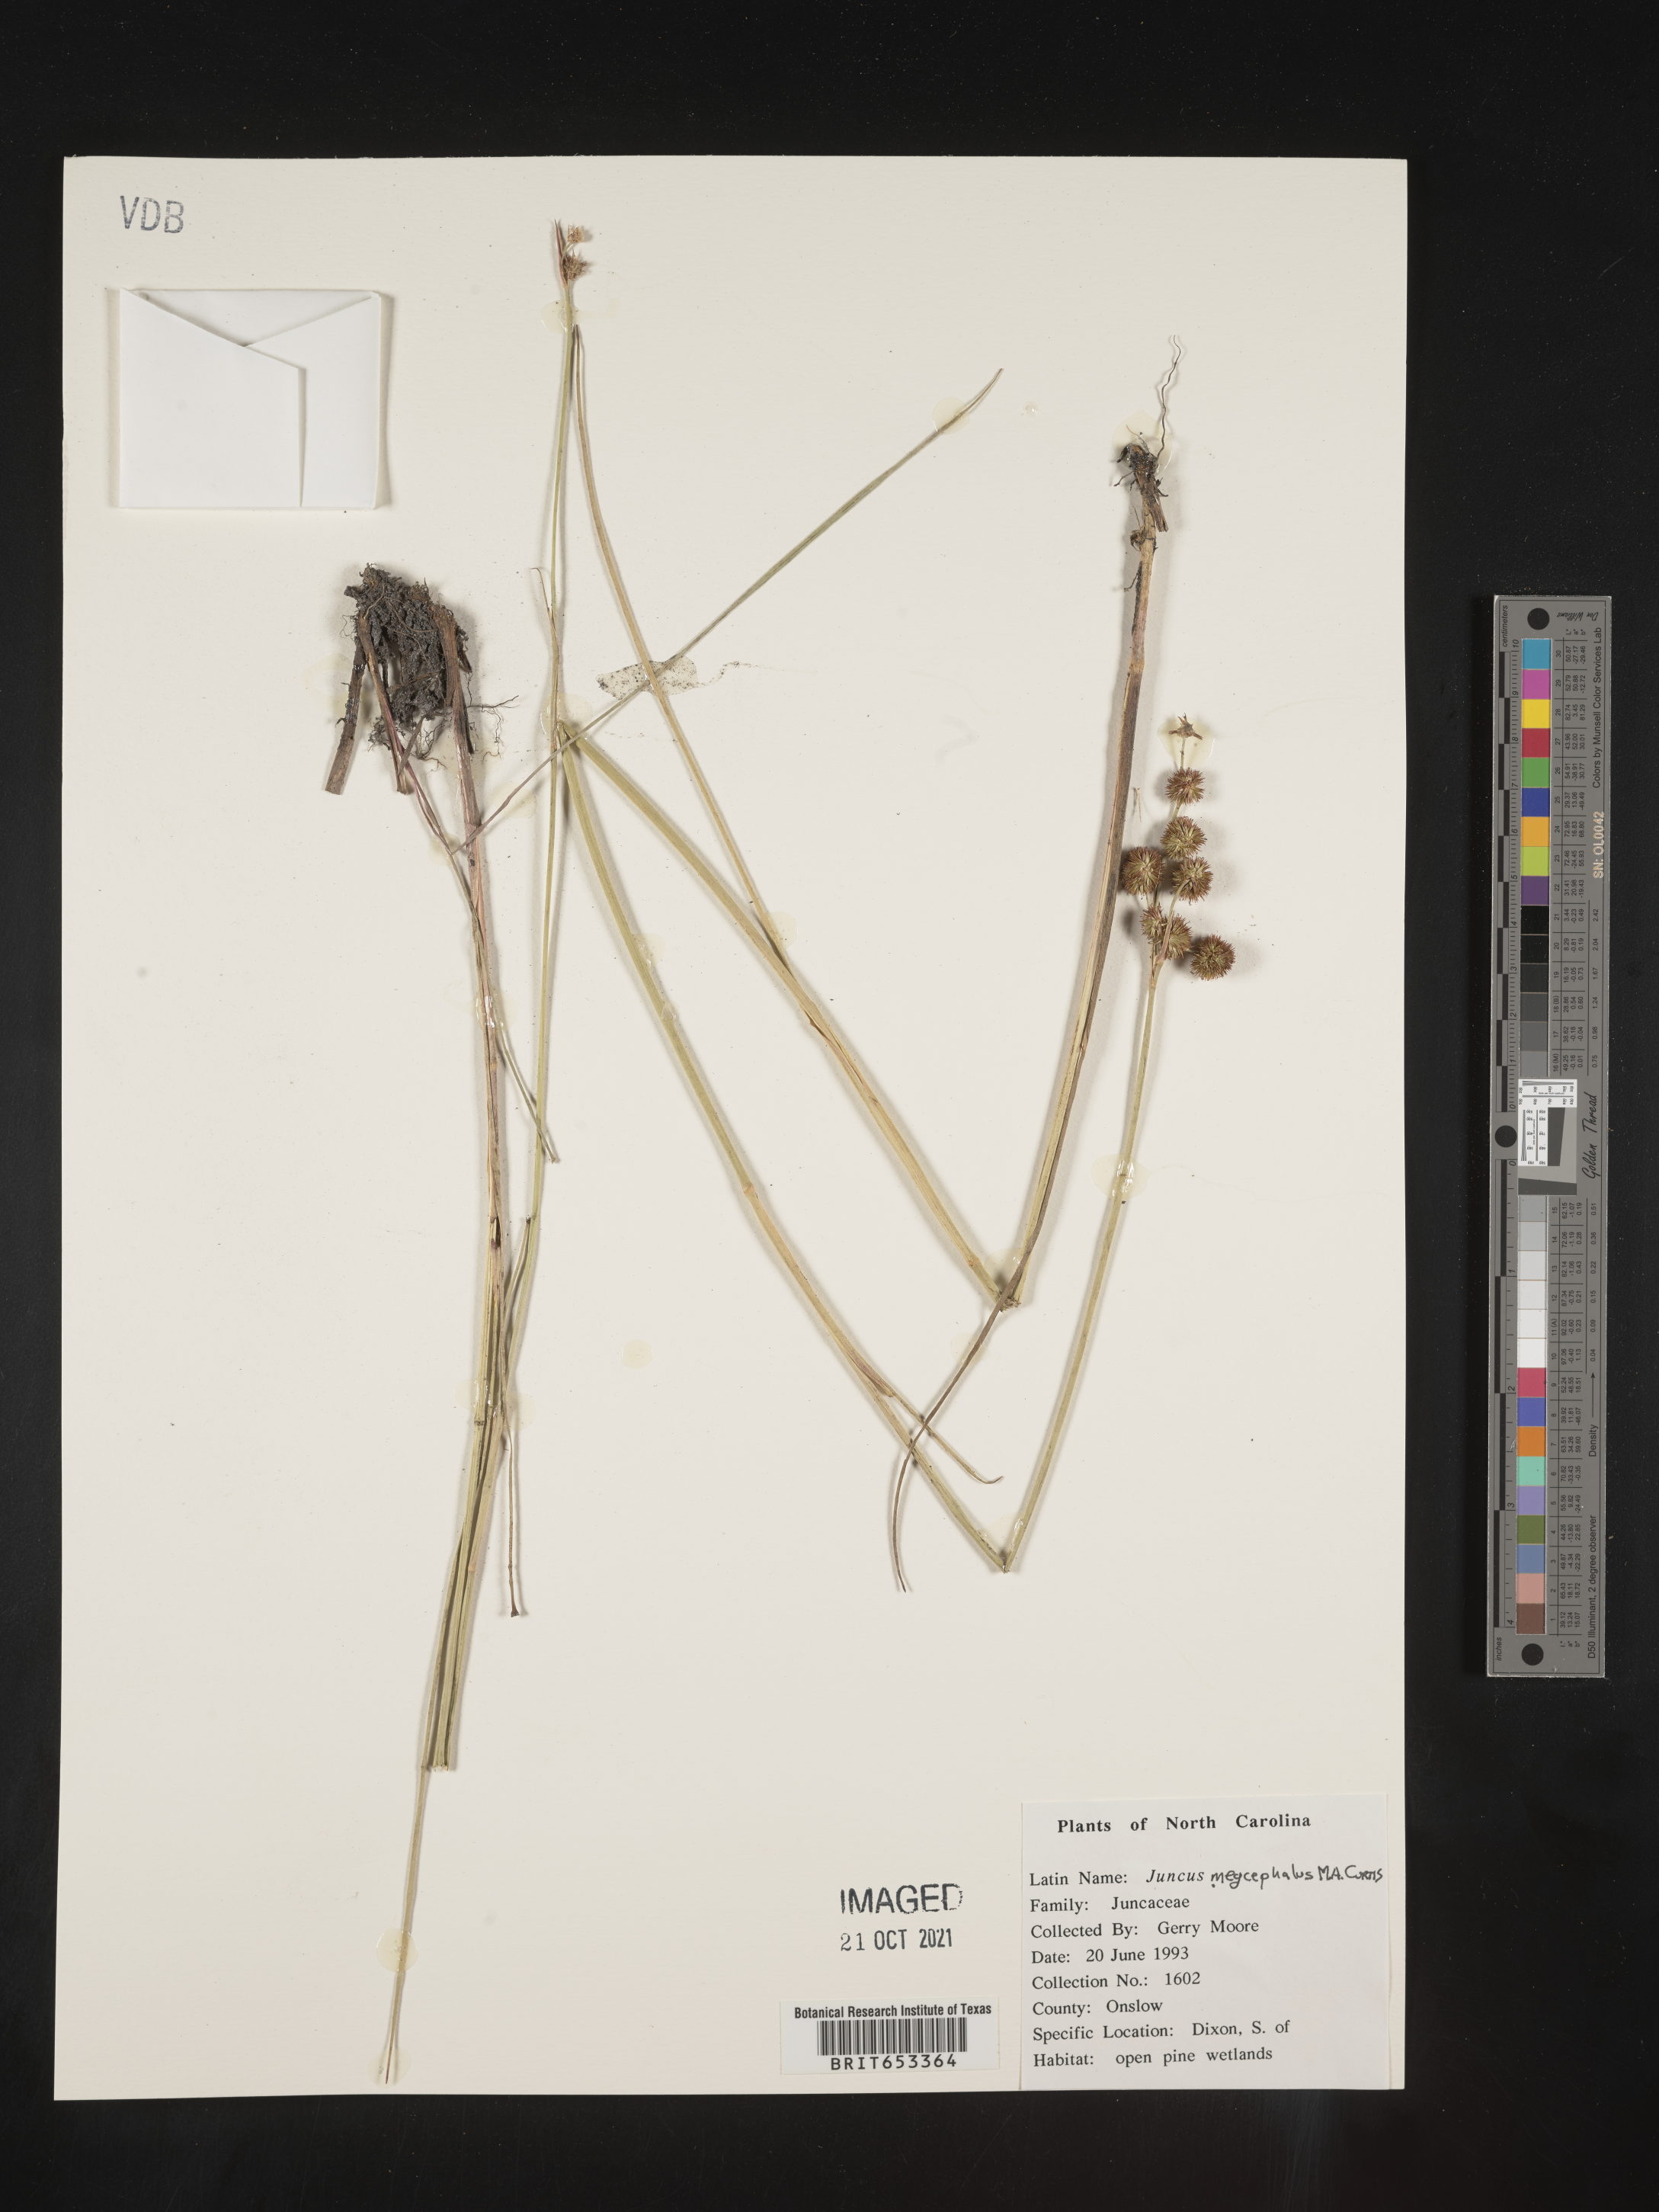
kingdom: Plantae
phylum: Tracheophyta
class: Liliopsida
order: Poales
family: Juncaceae
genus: Juncus
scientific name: Juncus megacephalus
